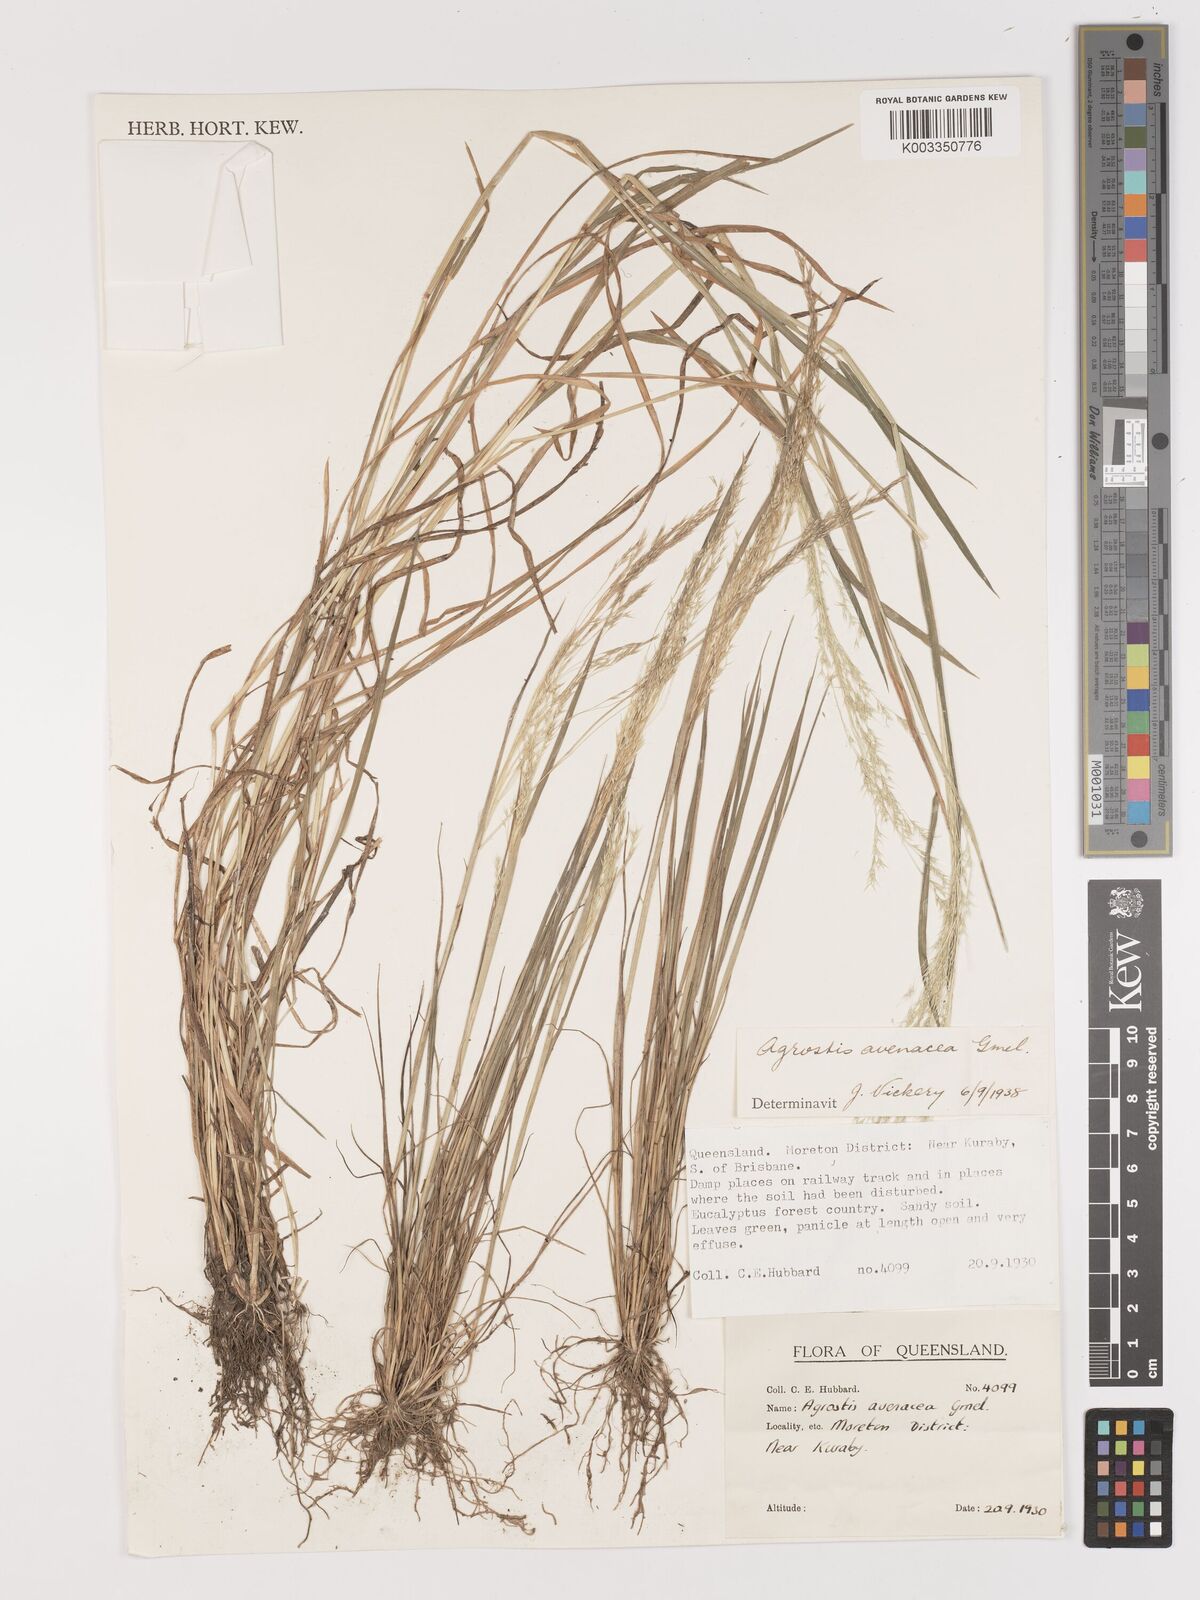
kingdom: Plantae
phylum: Tracheophyta
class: Liliopsida
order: Poales
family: Poaceae
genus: Lachnagrostis
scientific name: Lachnagrostis filiformis
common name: Bentgrass
